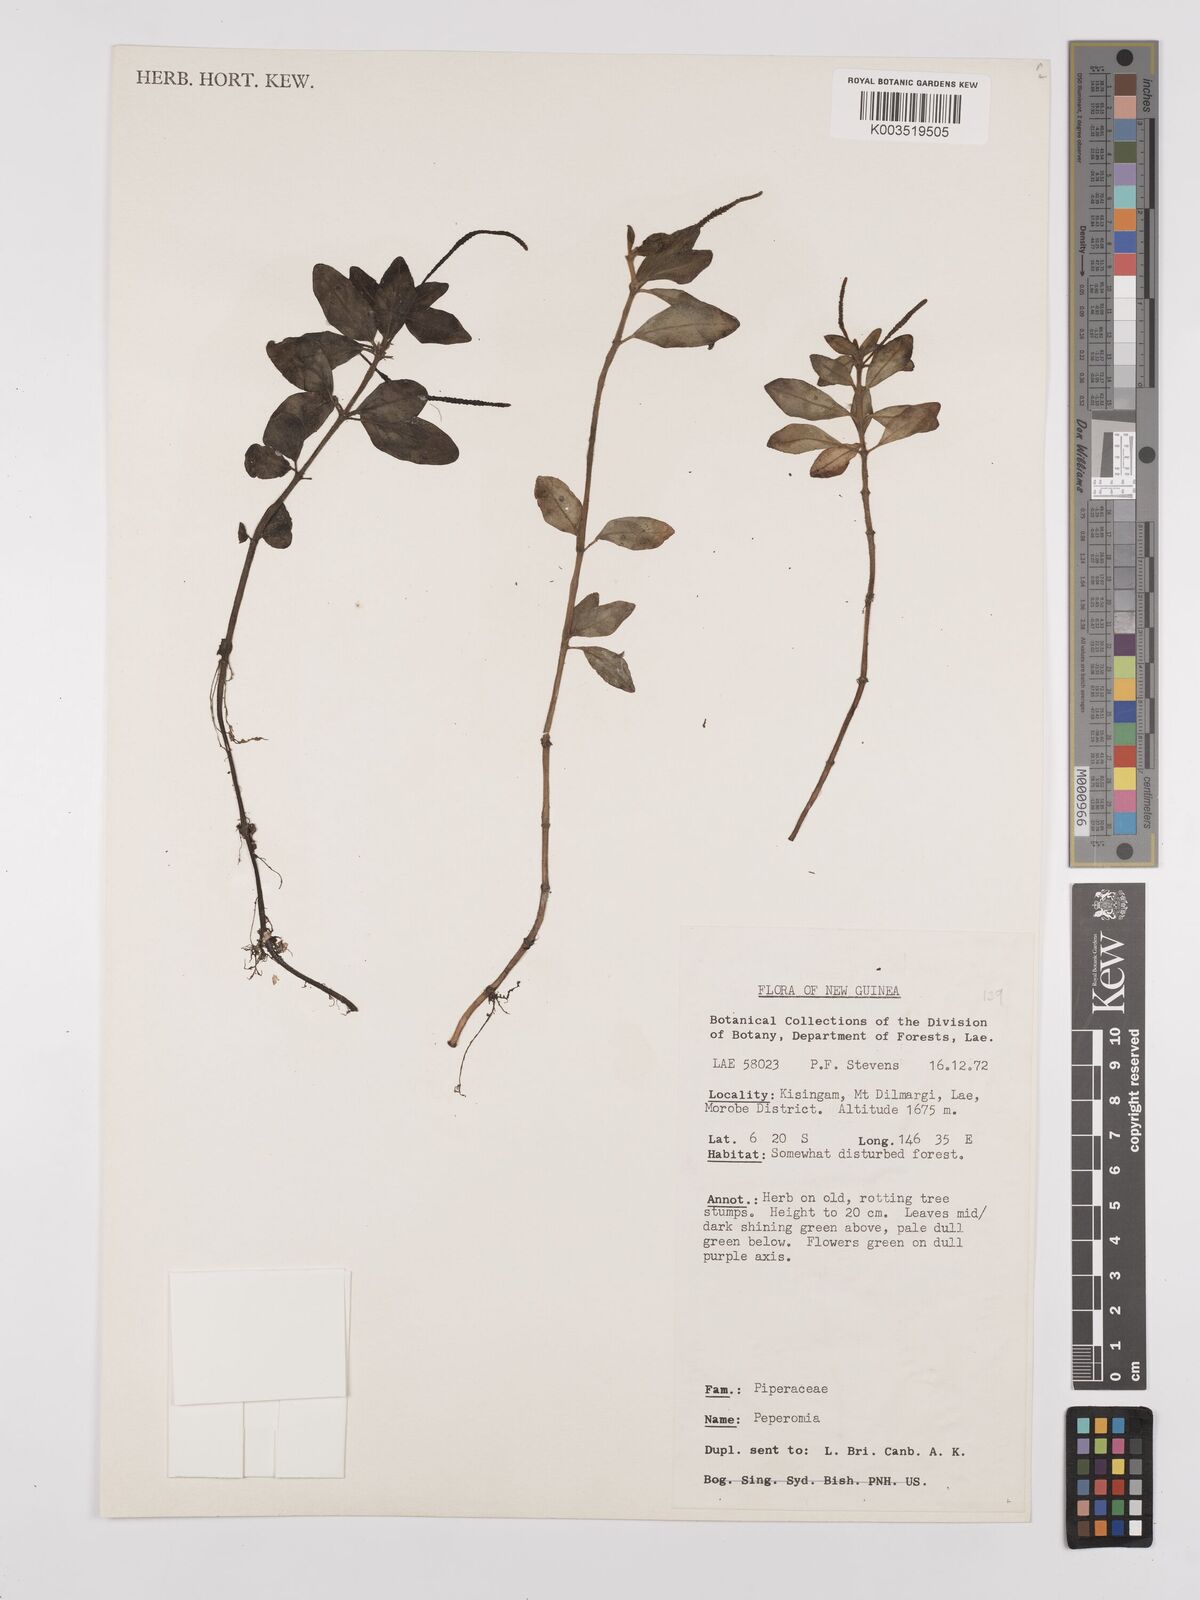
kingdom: Plantae
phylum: Tracheophyta
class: Magnoliopsida
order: Piperales
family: Piperaceae
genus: Peperomia
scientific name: Peperomia
